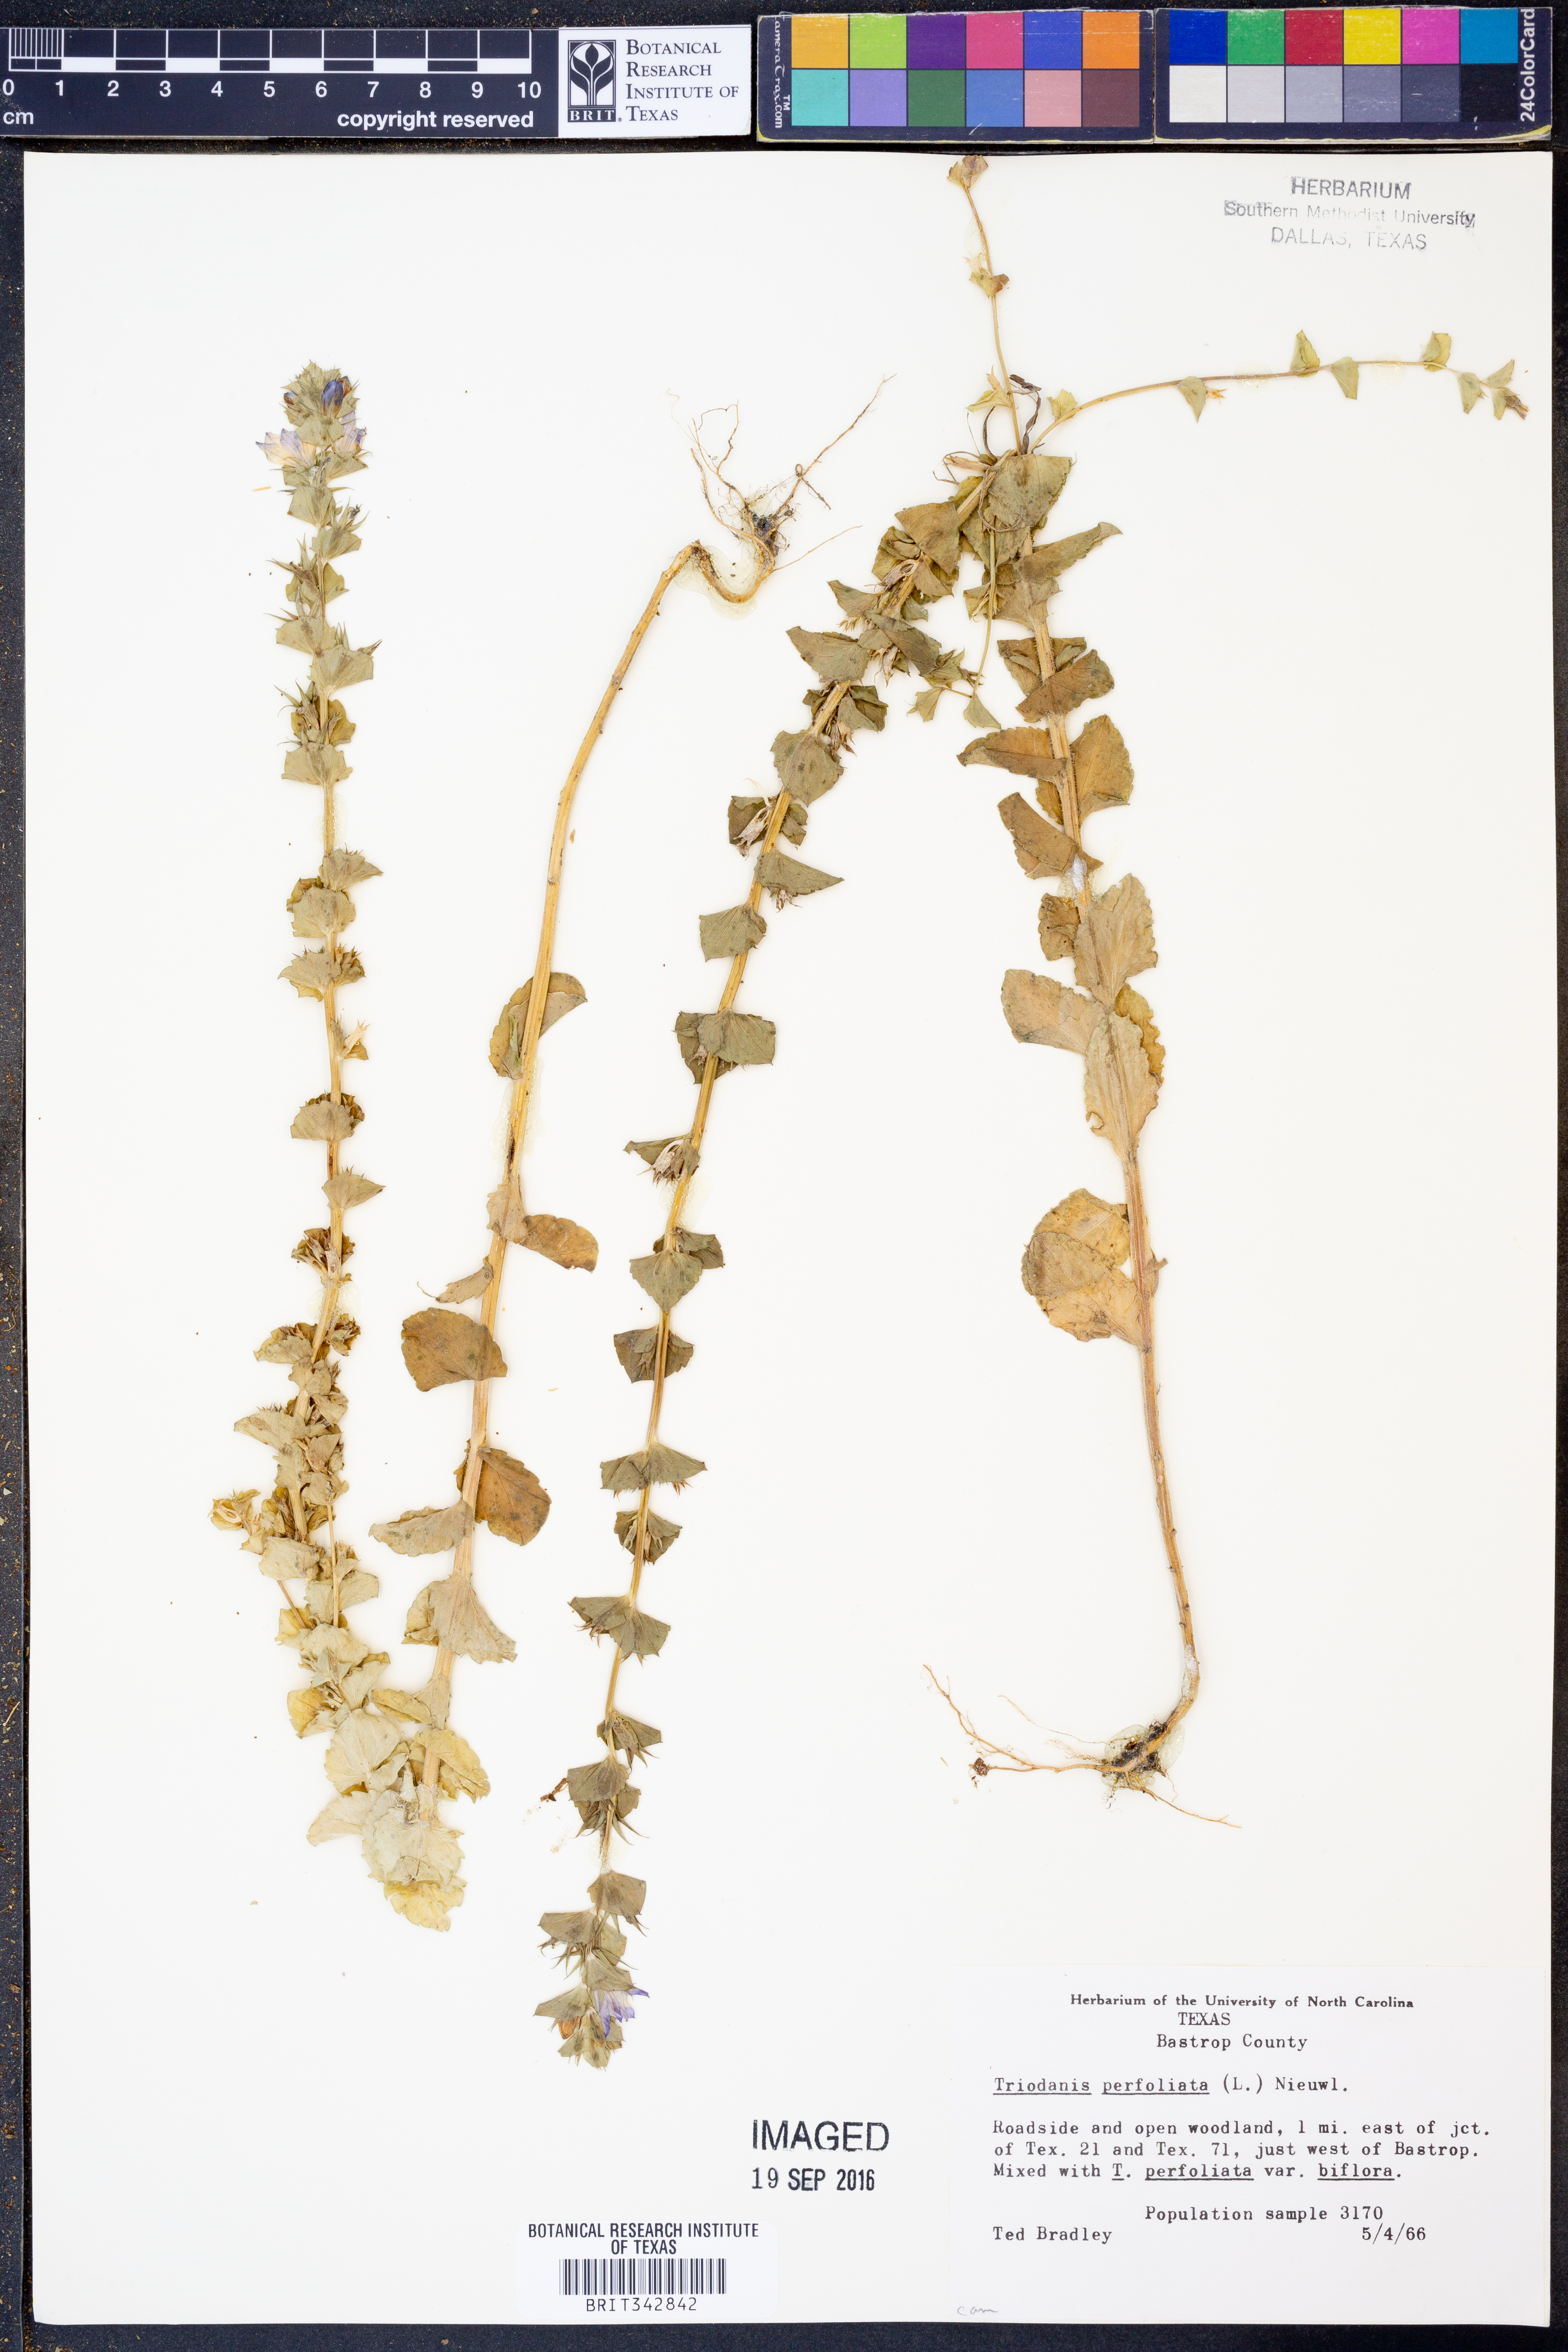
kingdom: Plantae
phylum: Tracheophyta
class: Magnoliopsida
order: Asterales
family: Campanulaceae
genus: Triodanis
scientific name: Triodanis perfoliata
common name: Clasping venus' looking-glass
